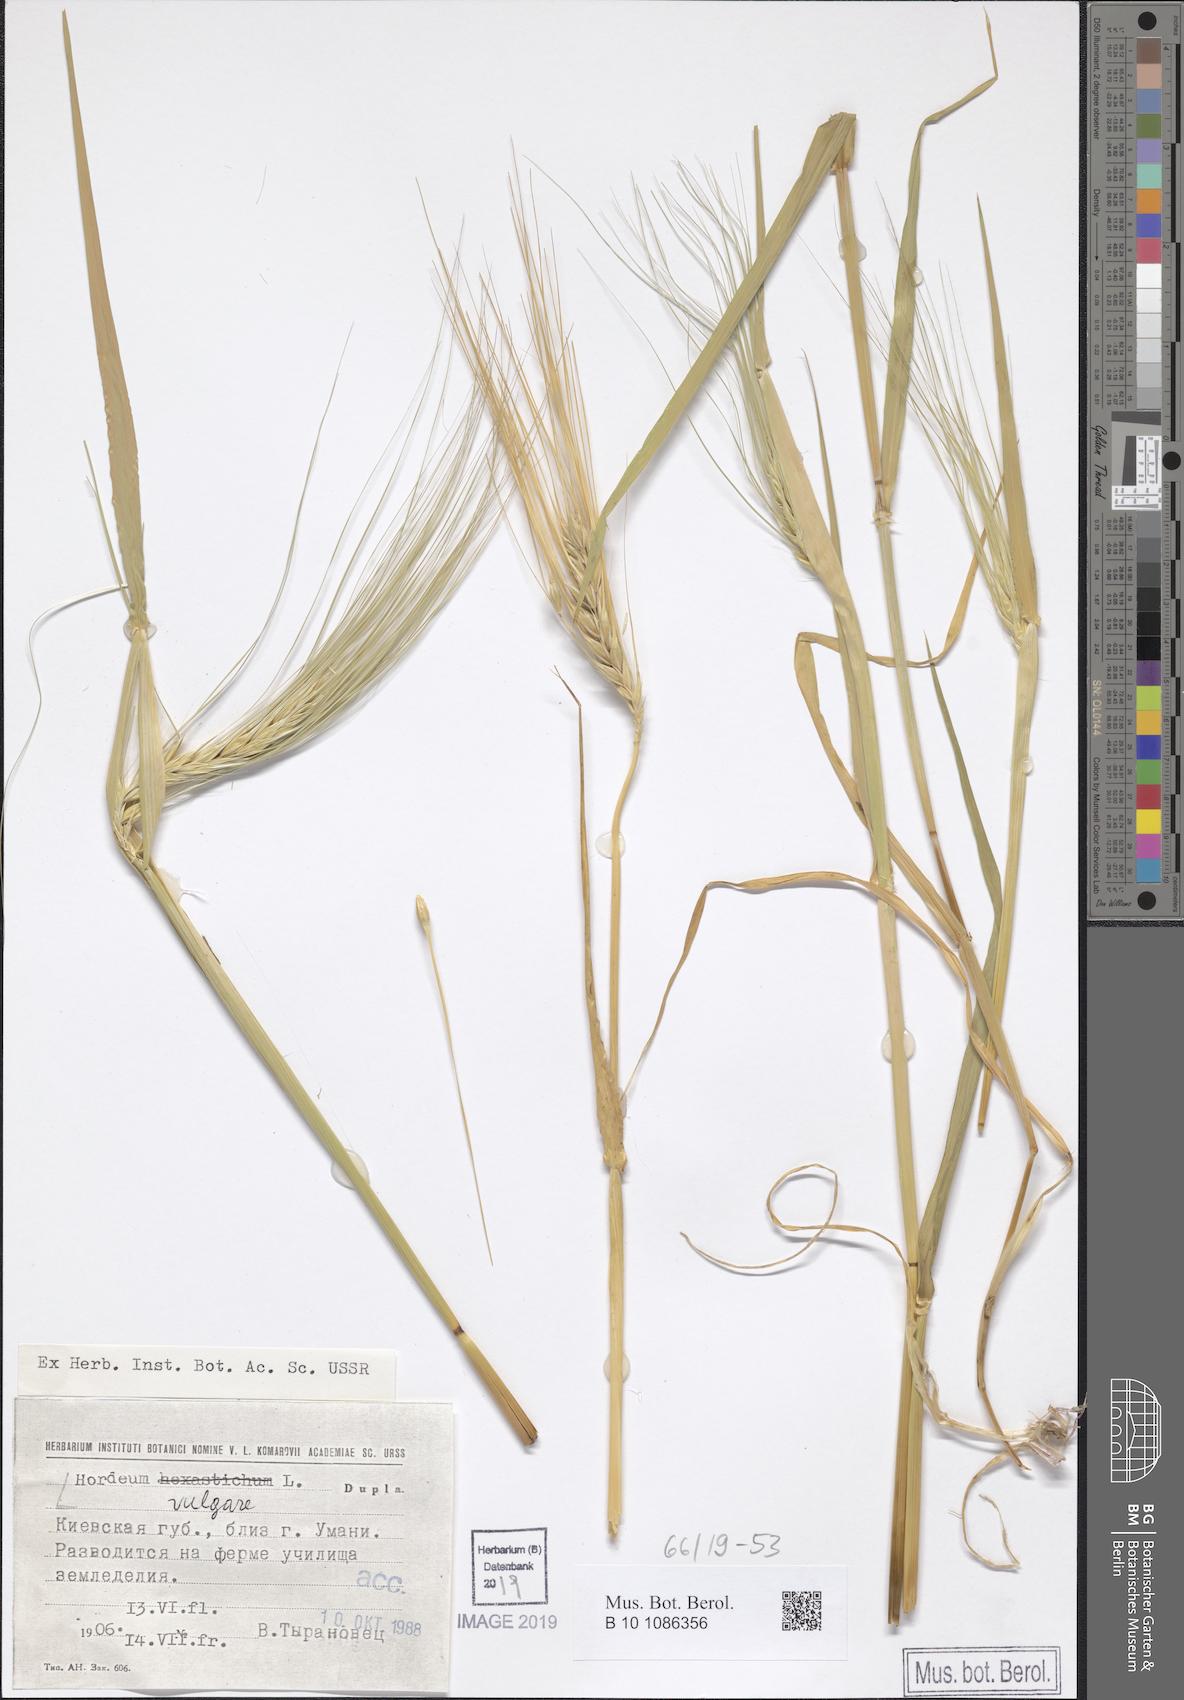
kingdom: Plantae
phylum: Tracheophyta
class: Liliopsida
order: Poales
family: Poaceae
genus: Hordeum
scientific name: Hordeum vulgare
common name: Common barley
